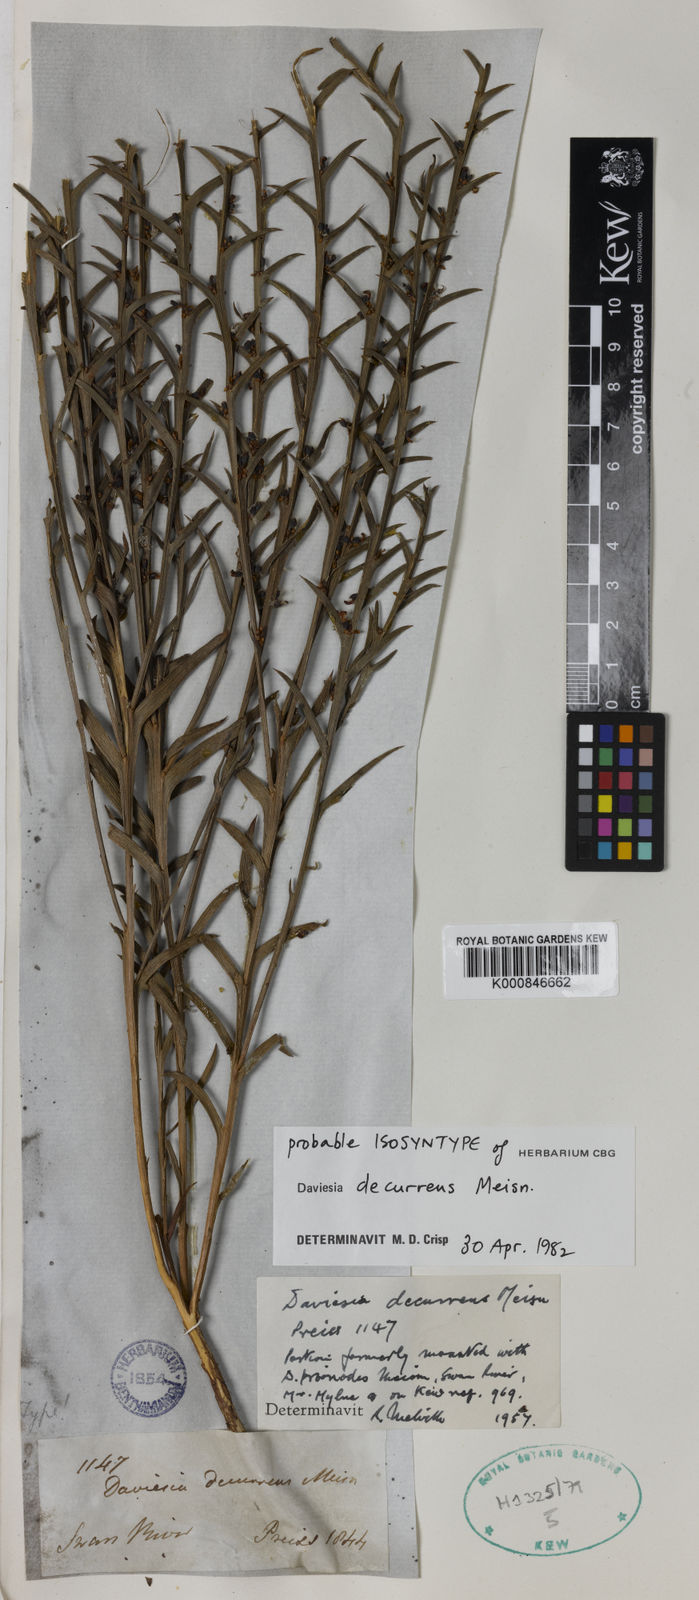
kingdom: Plantae
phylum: Tracheophyta
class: Magnoliopsida
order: Fabales
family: Fabaceae
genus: Daviesia
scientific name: Daviesia decurrens
